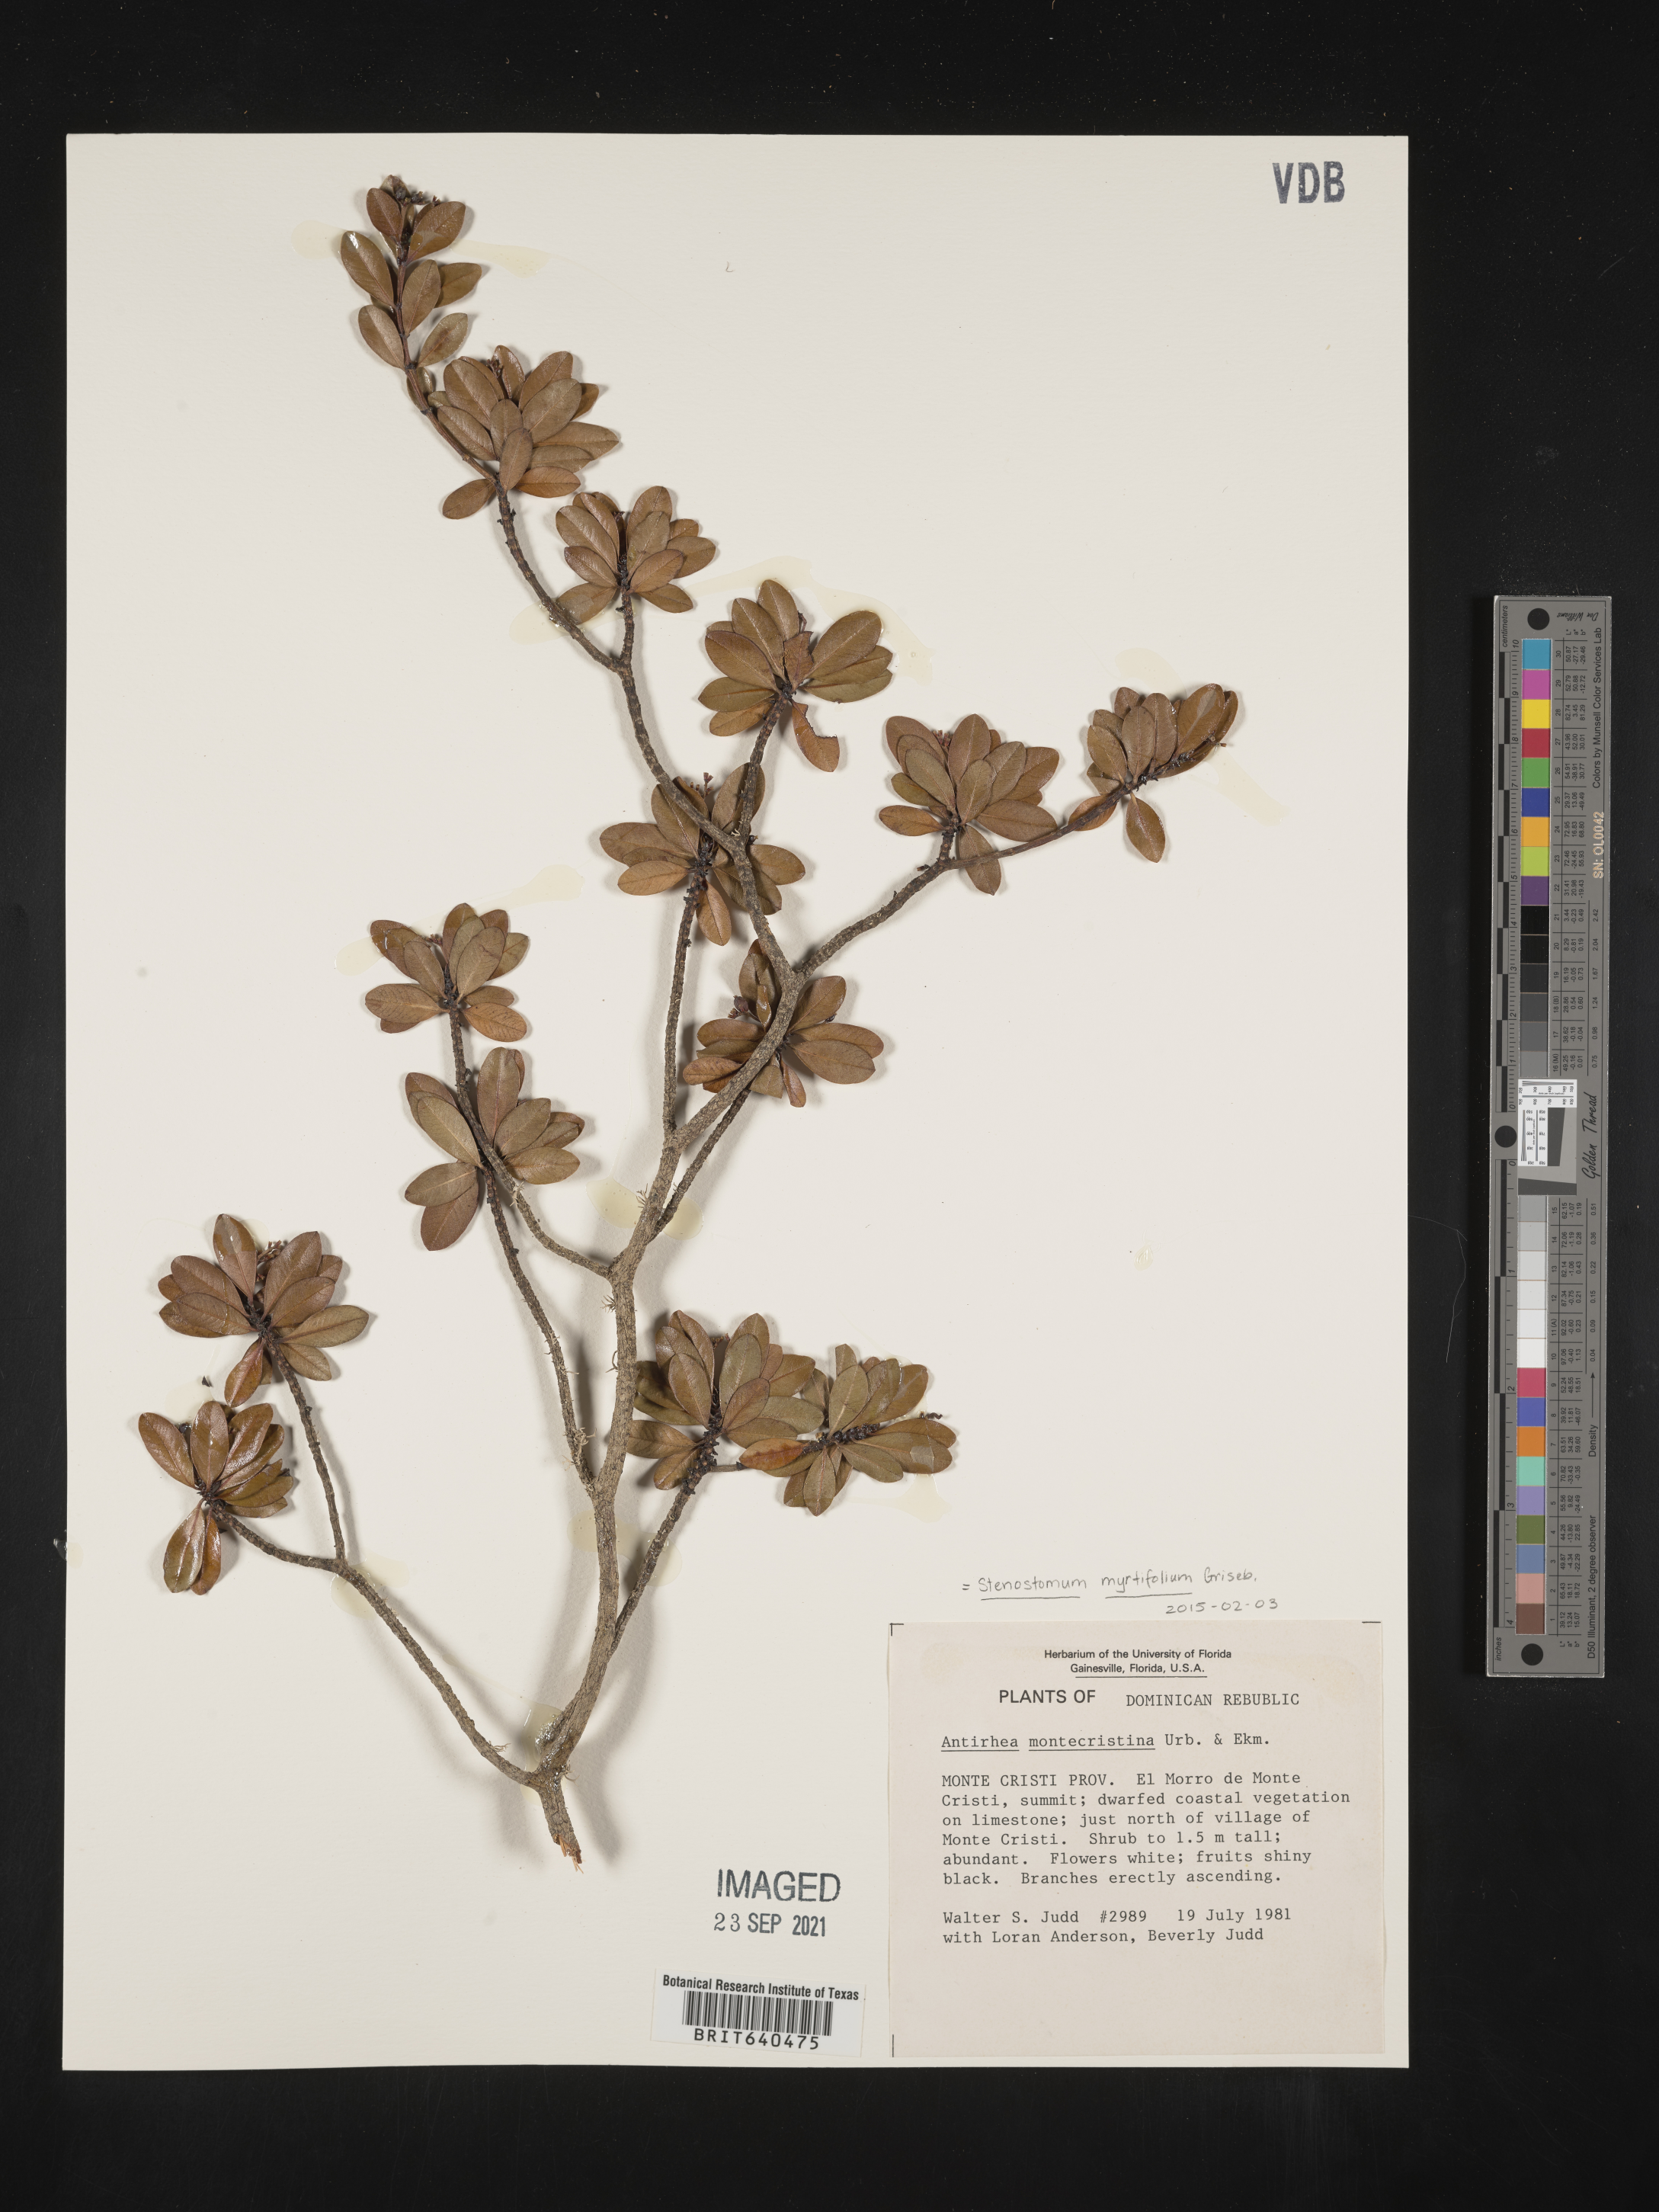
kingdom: Plantae
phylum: Tracheophyta
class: Magnoliopsida
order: Gentianales
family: Rubiaceae
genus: Stenostomum
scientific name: Stenostomum
